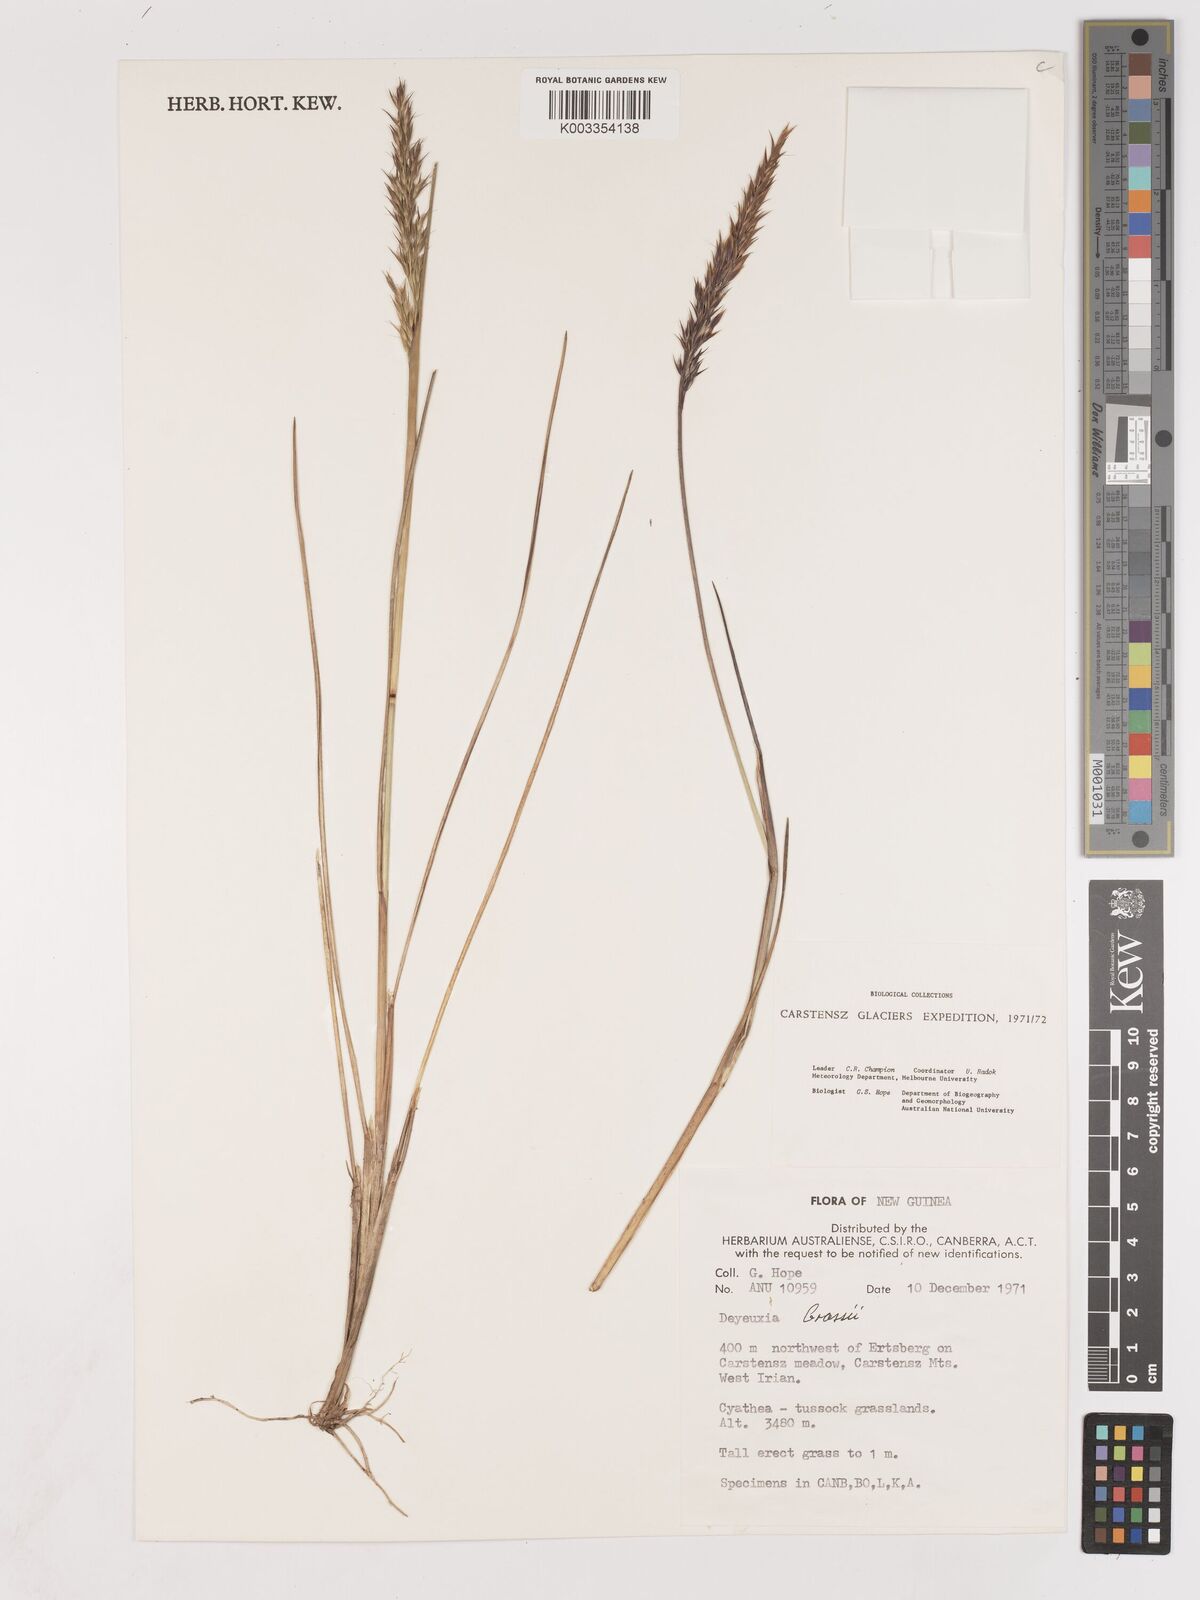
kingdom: Plantae
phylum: Tracheophyta
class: Liliopsida
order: Poales
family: Poaceae
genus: Calamagrostis
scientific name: Calamagrostis brassii
